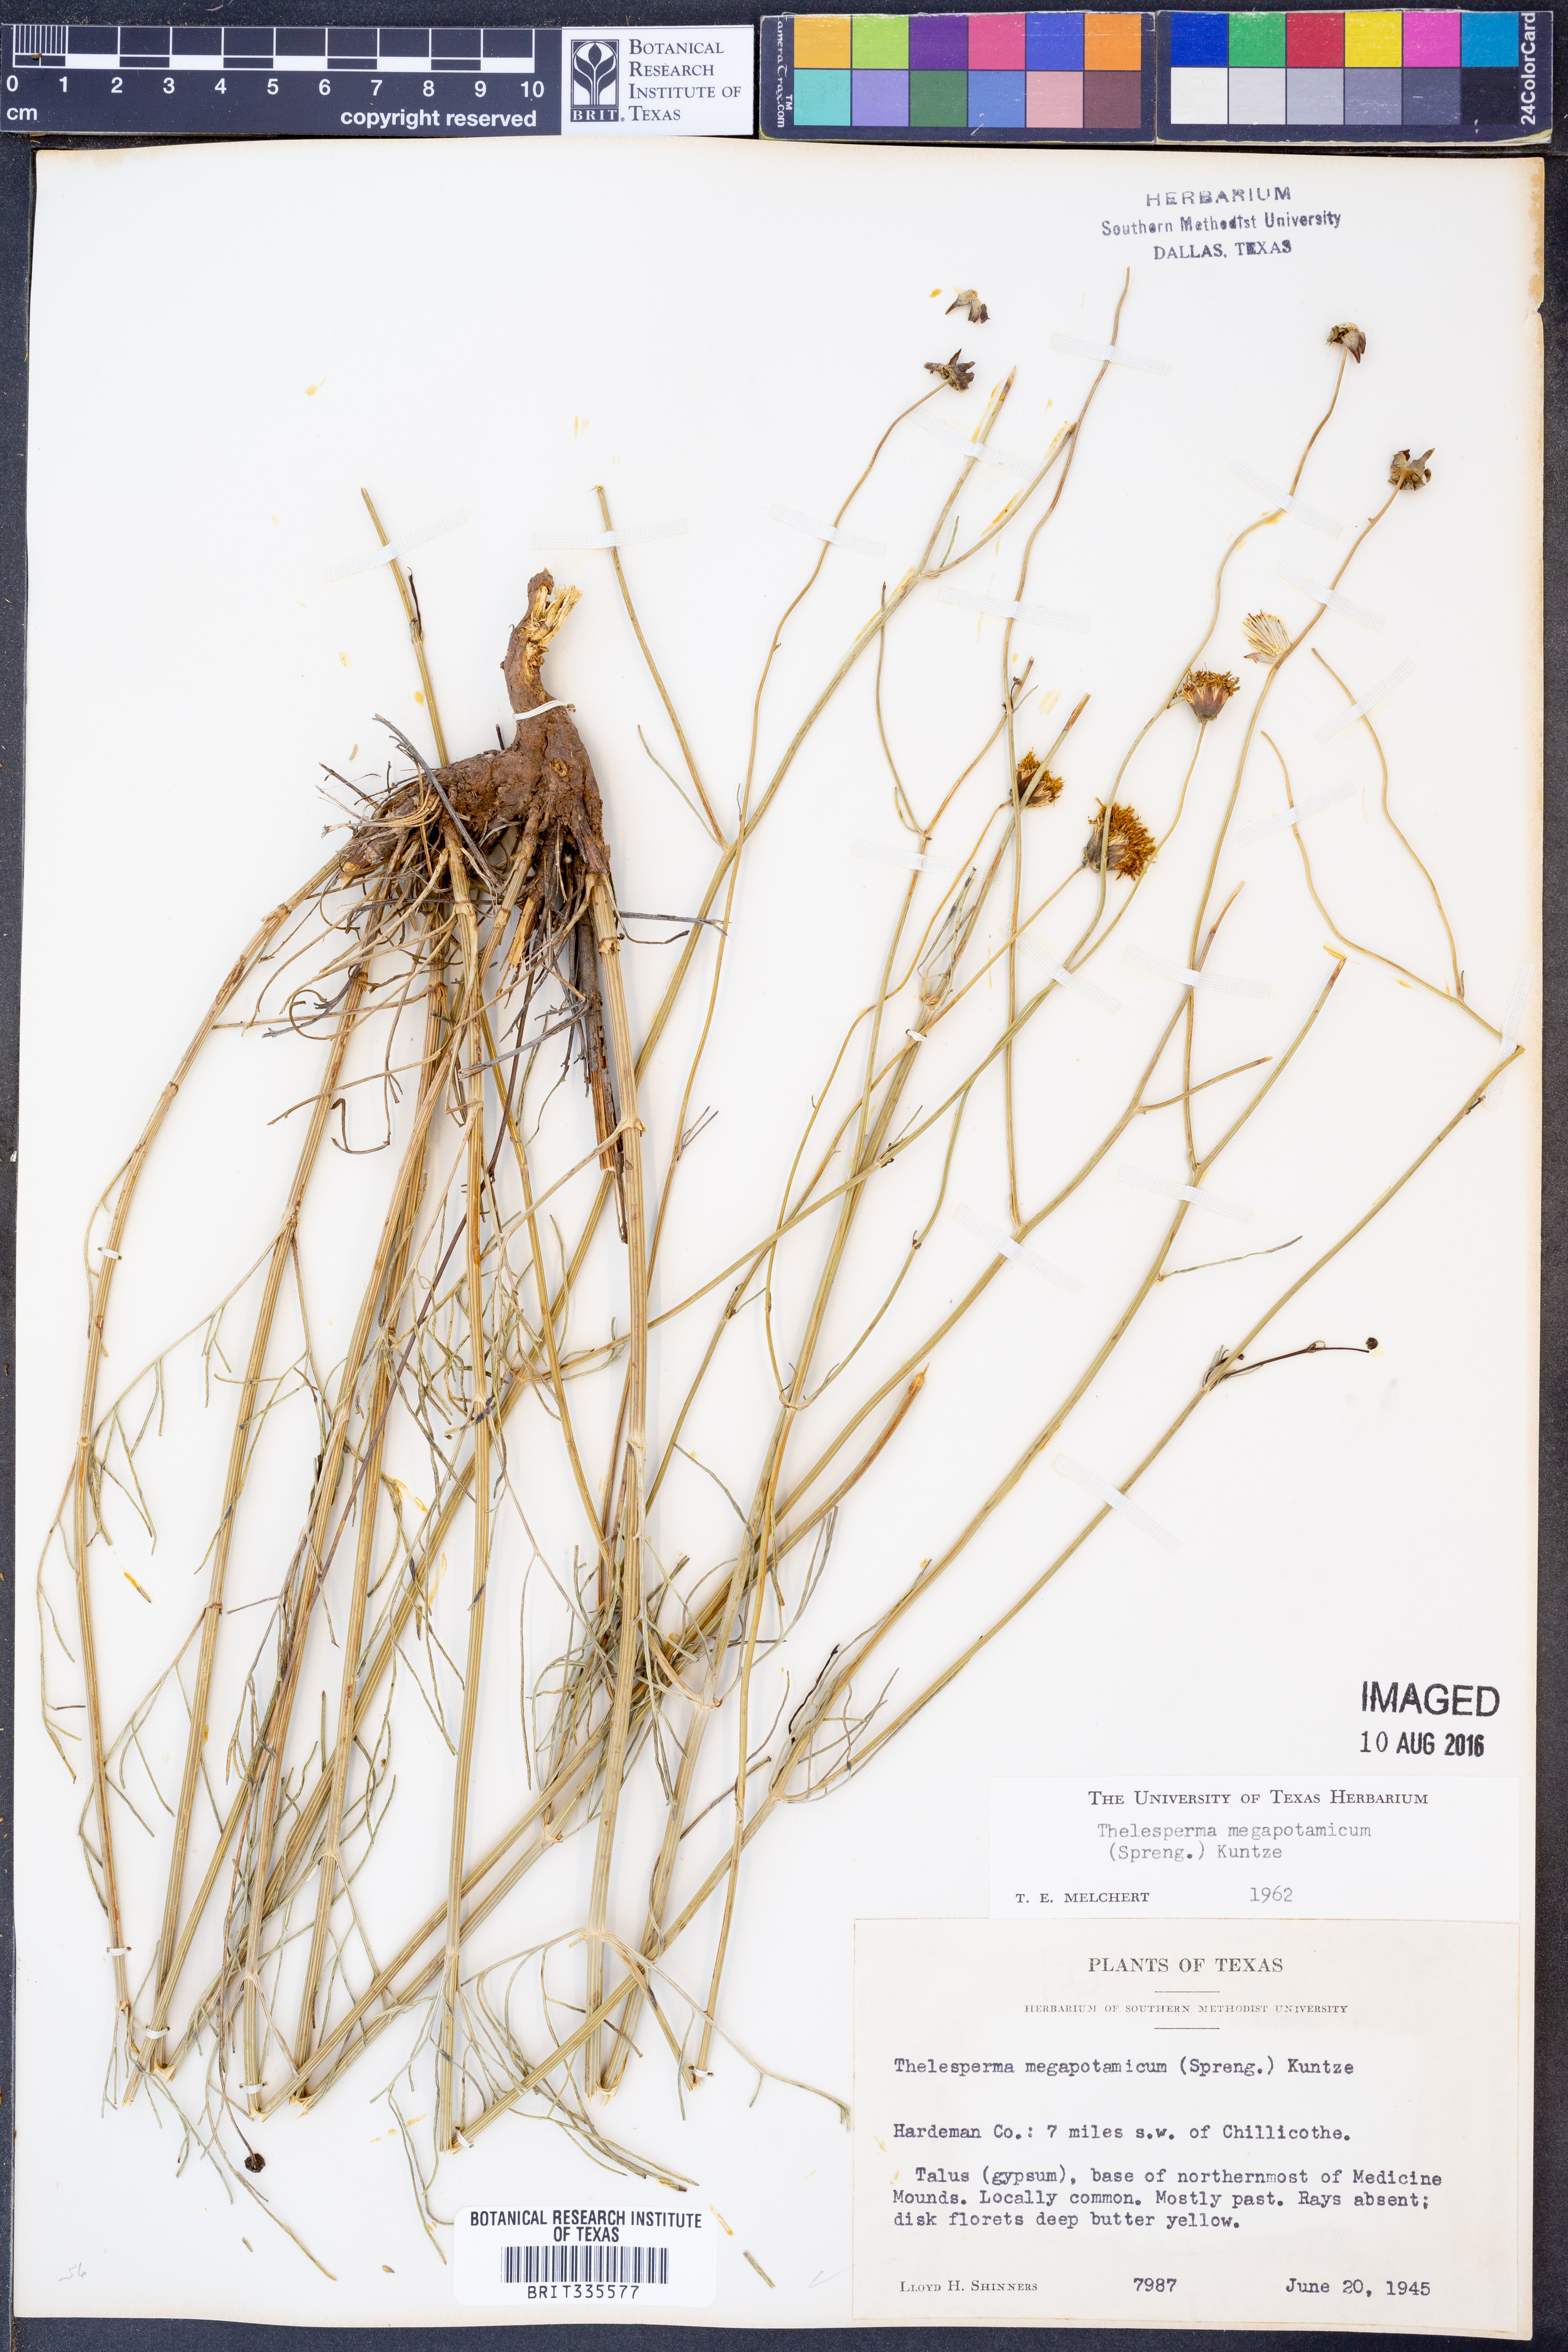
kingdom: Plantae
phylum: Tracheophyta
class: Magnoliopsida
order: Asterales
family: Asteraceae
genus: Thelesperma
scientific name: Thelesperma megapotamicum
